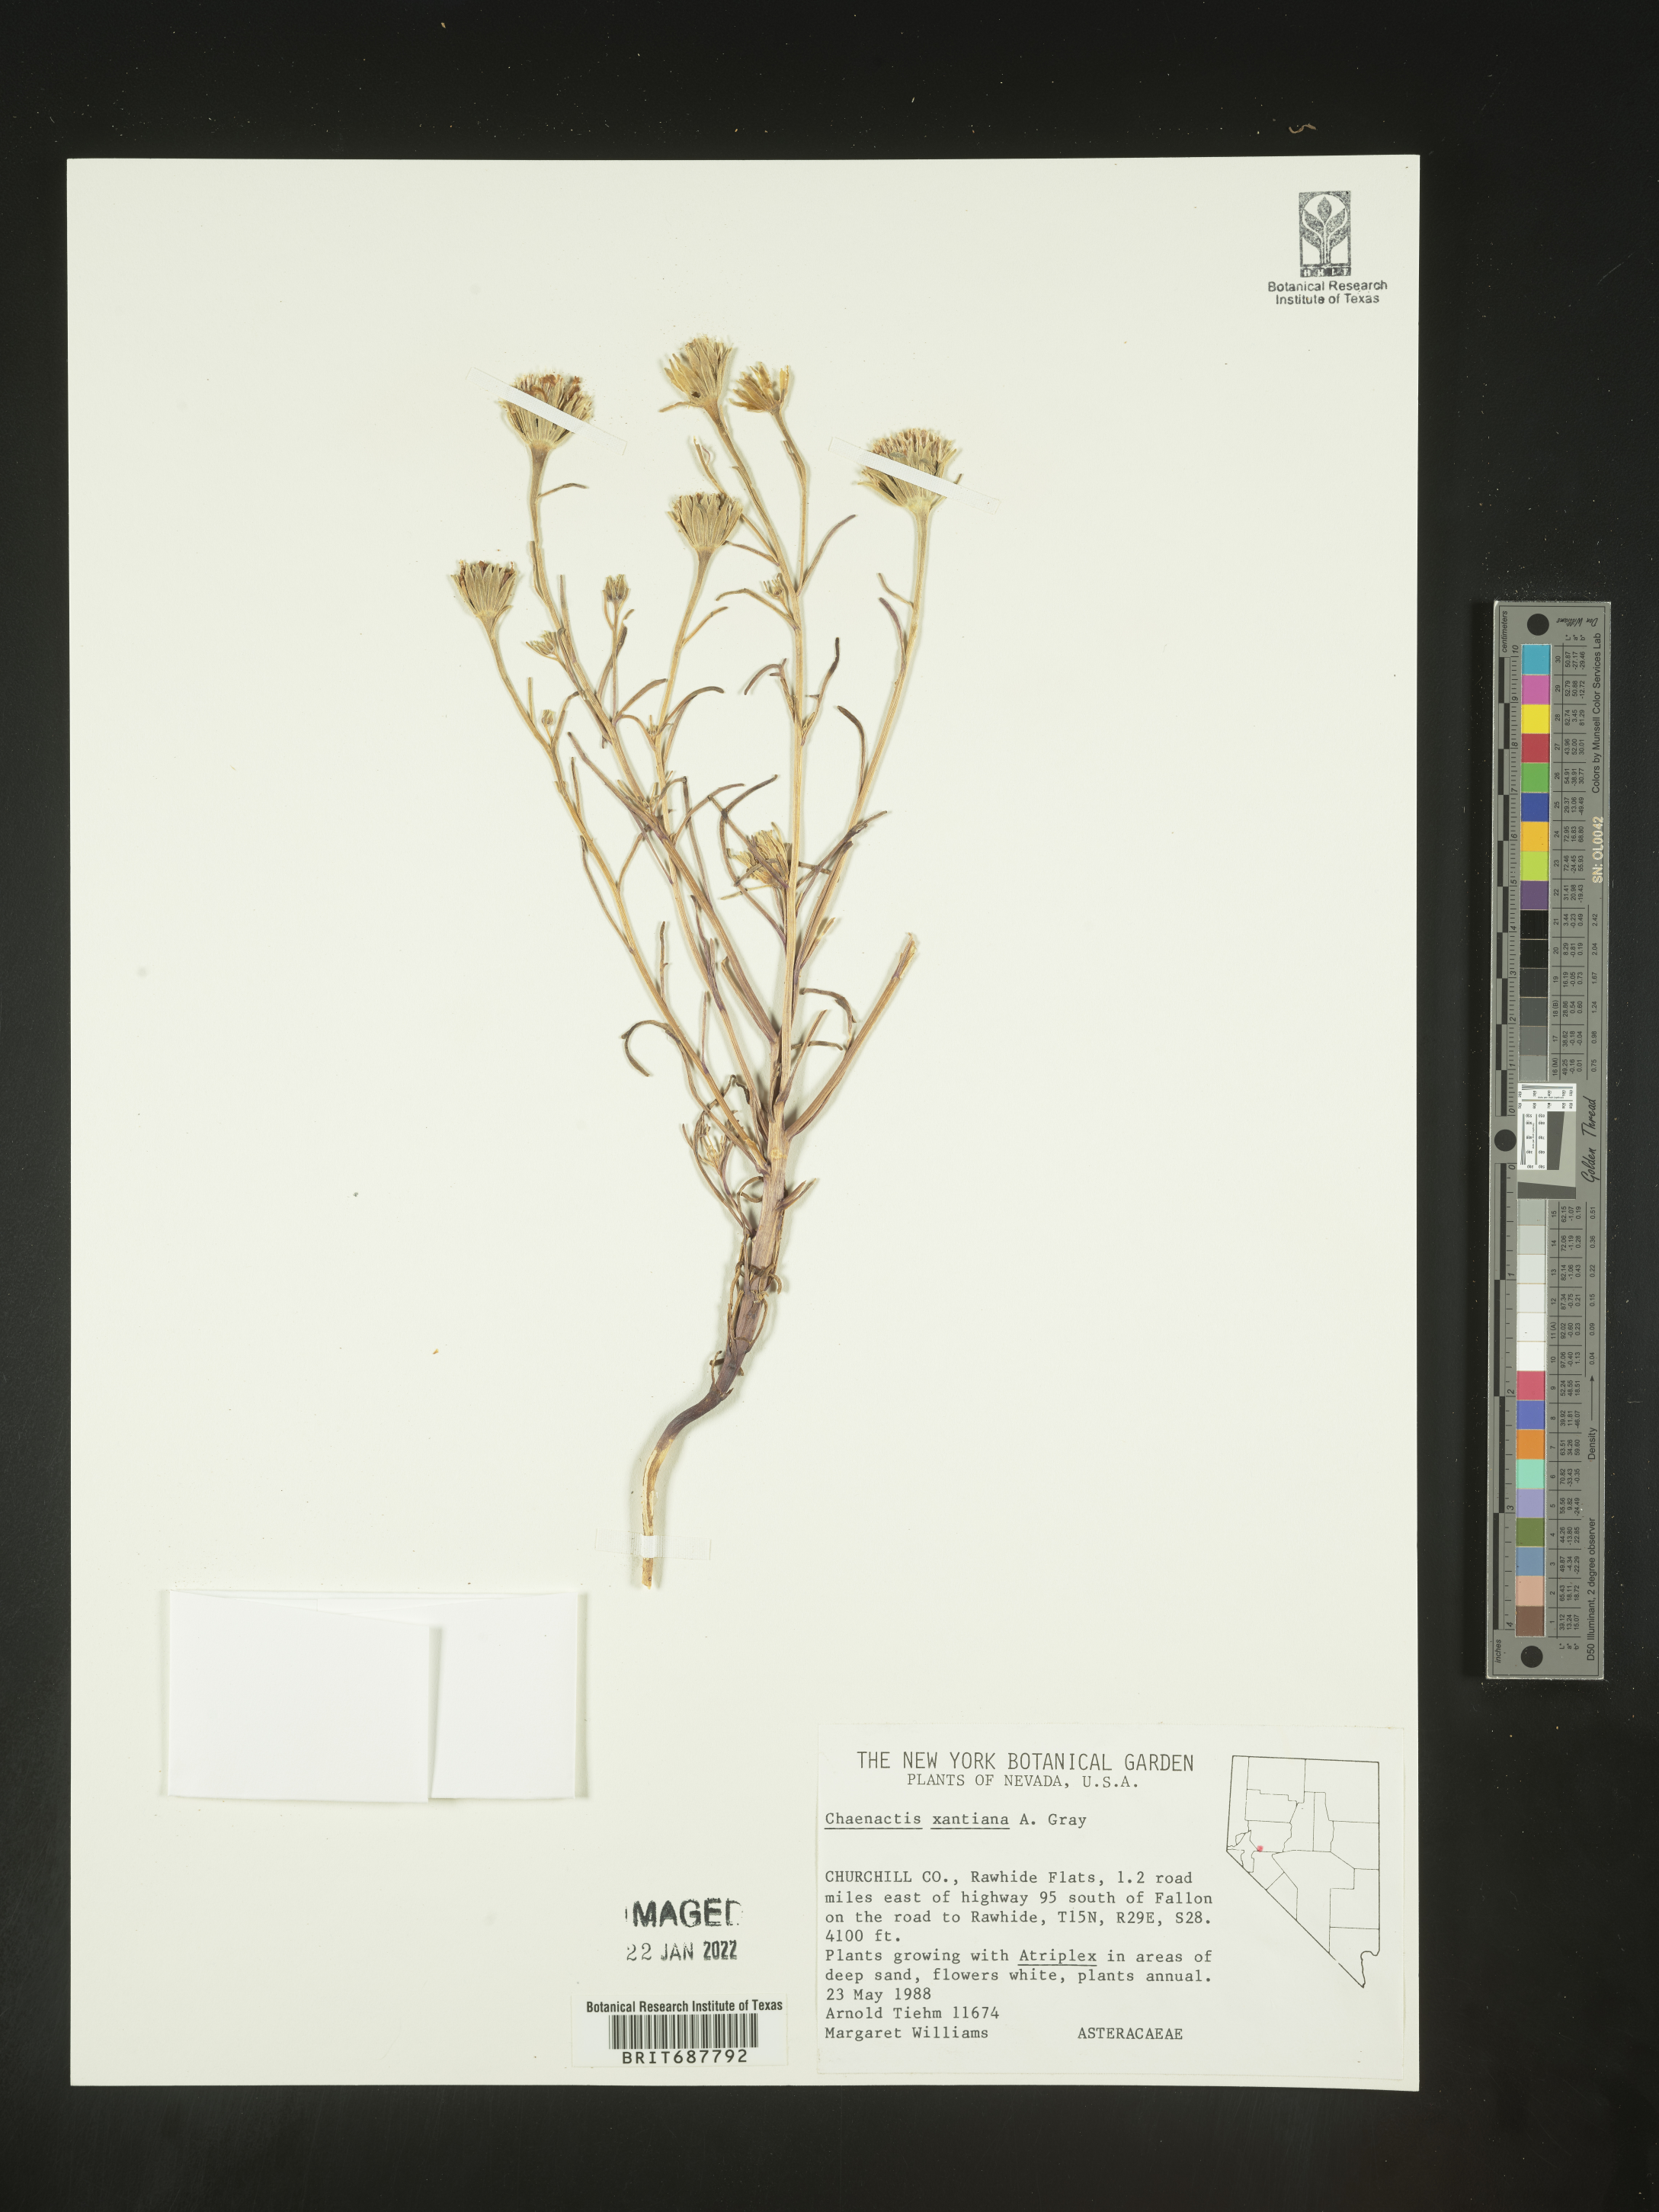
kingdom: Plantae
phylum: Tracheophyta
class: Magnoliopsida
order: Asterales
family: Asteraceae
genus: Chaenactis
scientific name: Chaenactis xantiana
